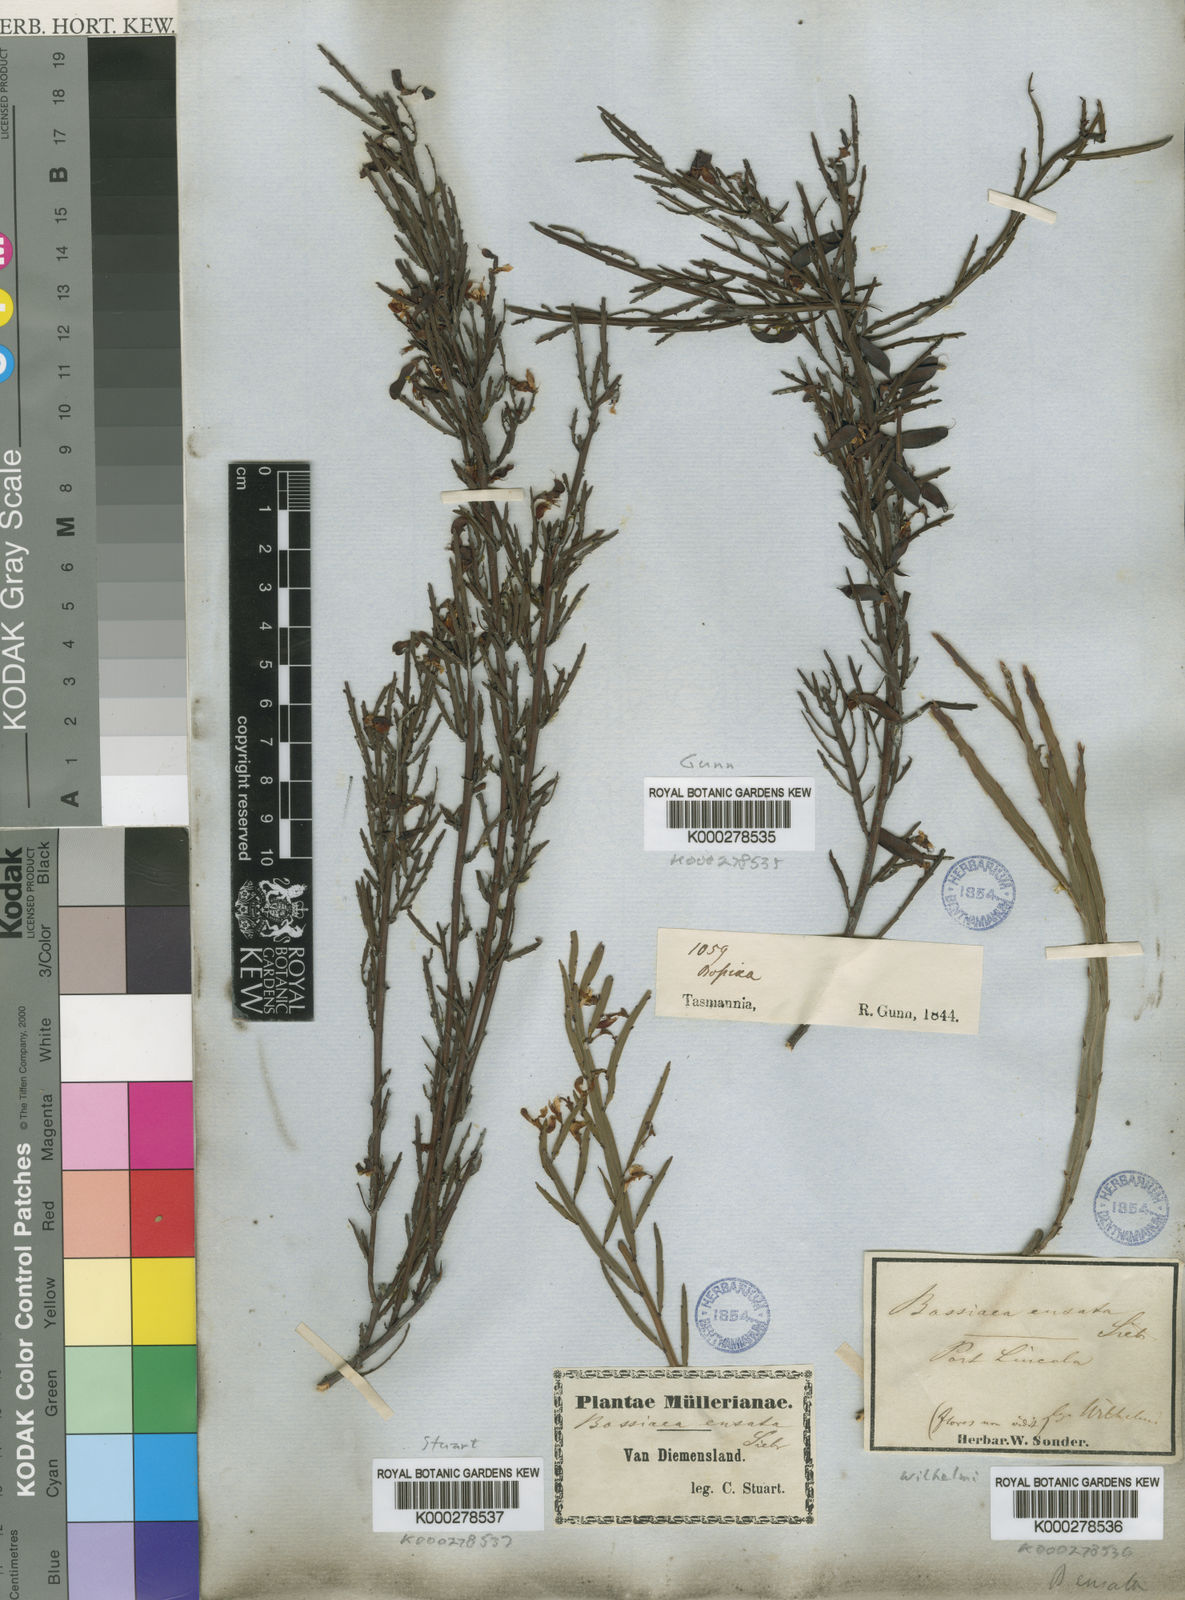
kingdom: Plantae
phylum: Tracheophyta
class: Magnoliopsida
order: Fabales
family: Fabaceae
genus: Bossiaea
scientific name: Bossiaea
